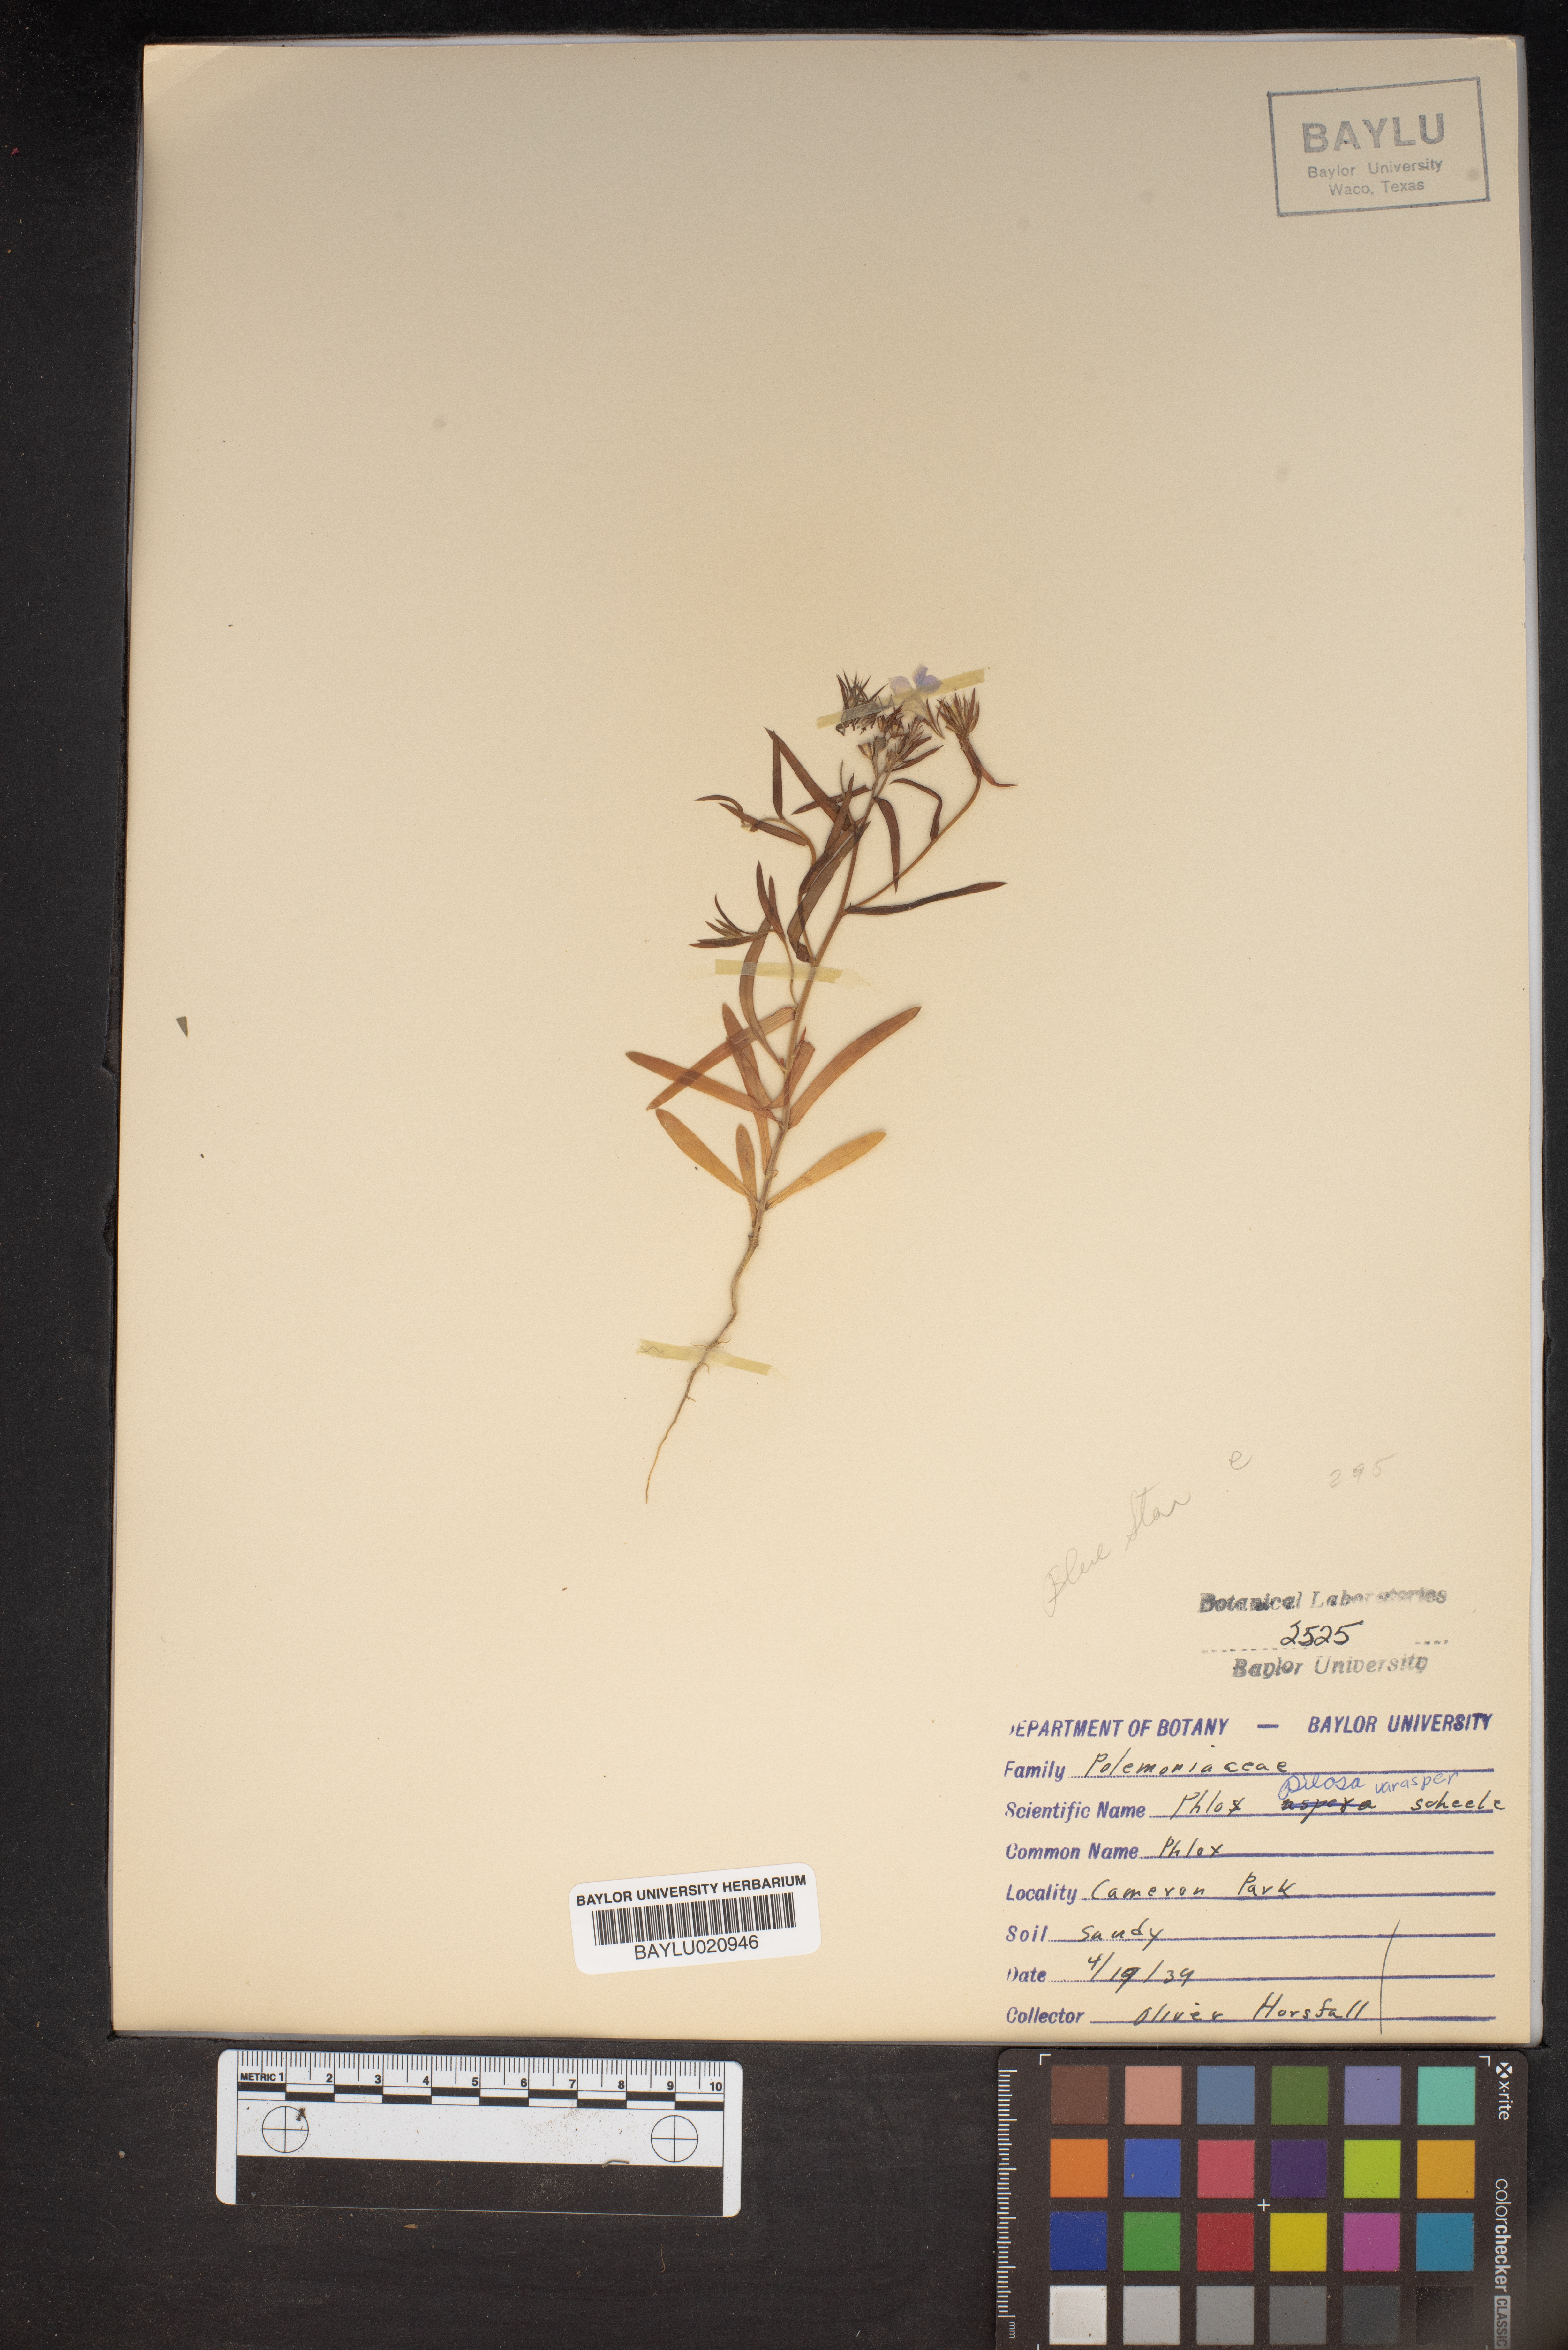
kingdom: Plantae
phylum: Tracheophyta
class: Magnoliopsida
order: Ericales
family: Polemoniaceae
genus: Phlox
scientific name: Phlox pilosa
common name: Prairie phlox
